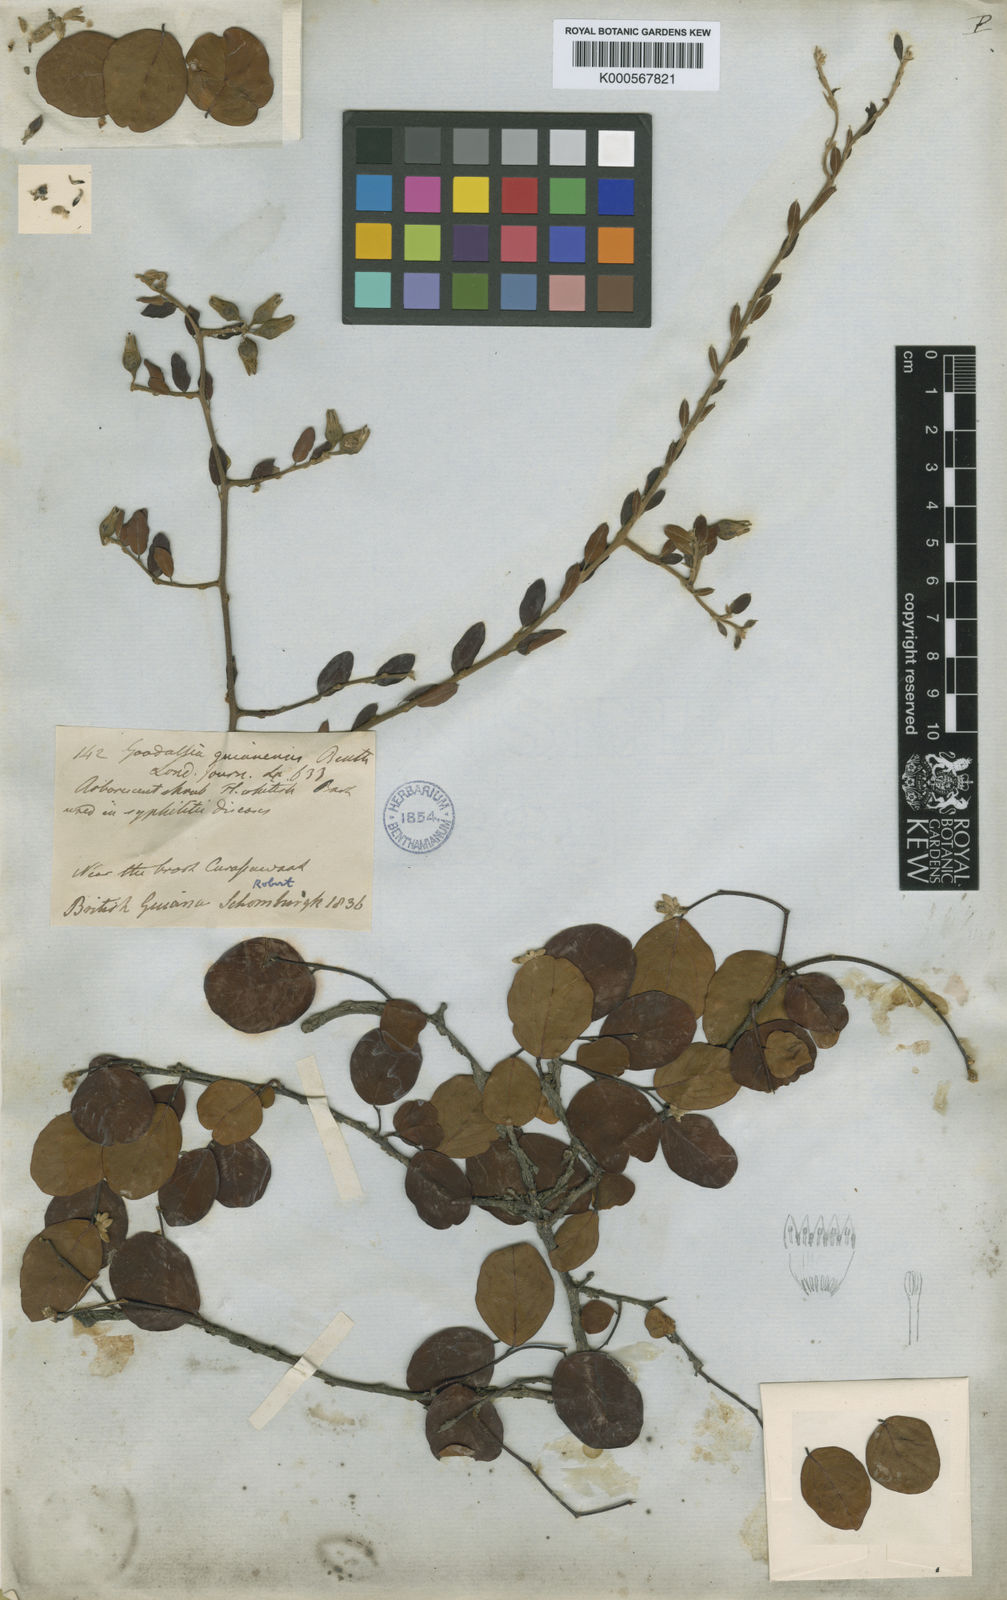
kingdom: Plantae
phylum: Tracheophyta
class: Magnoliopsida
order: Malvales
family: Thymelaeaceae
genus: Goodallia
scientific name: Goodallia guianensis
